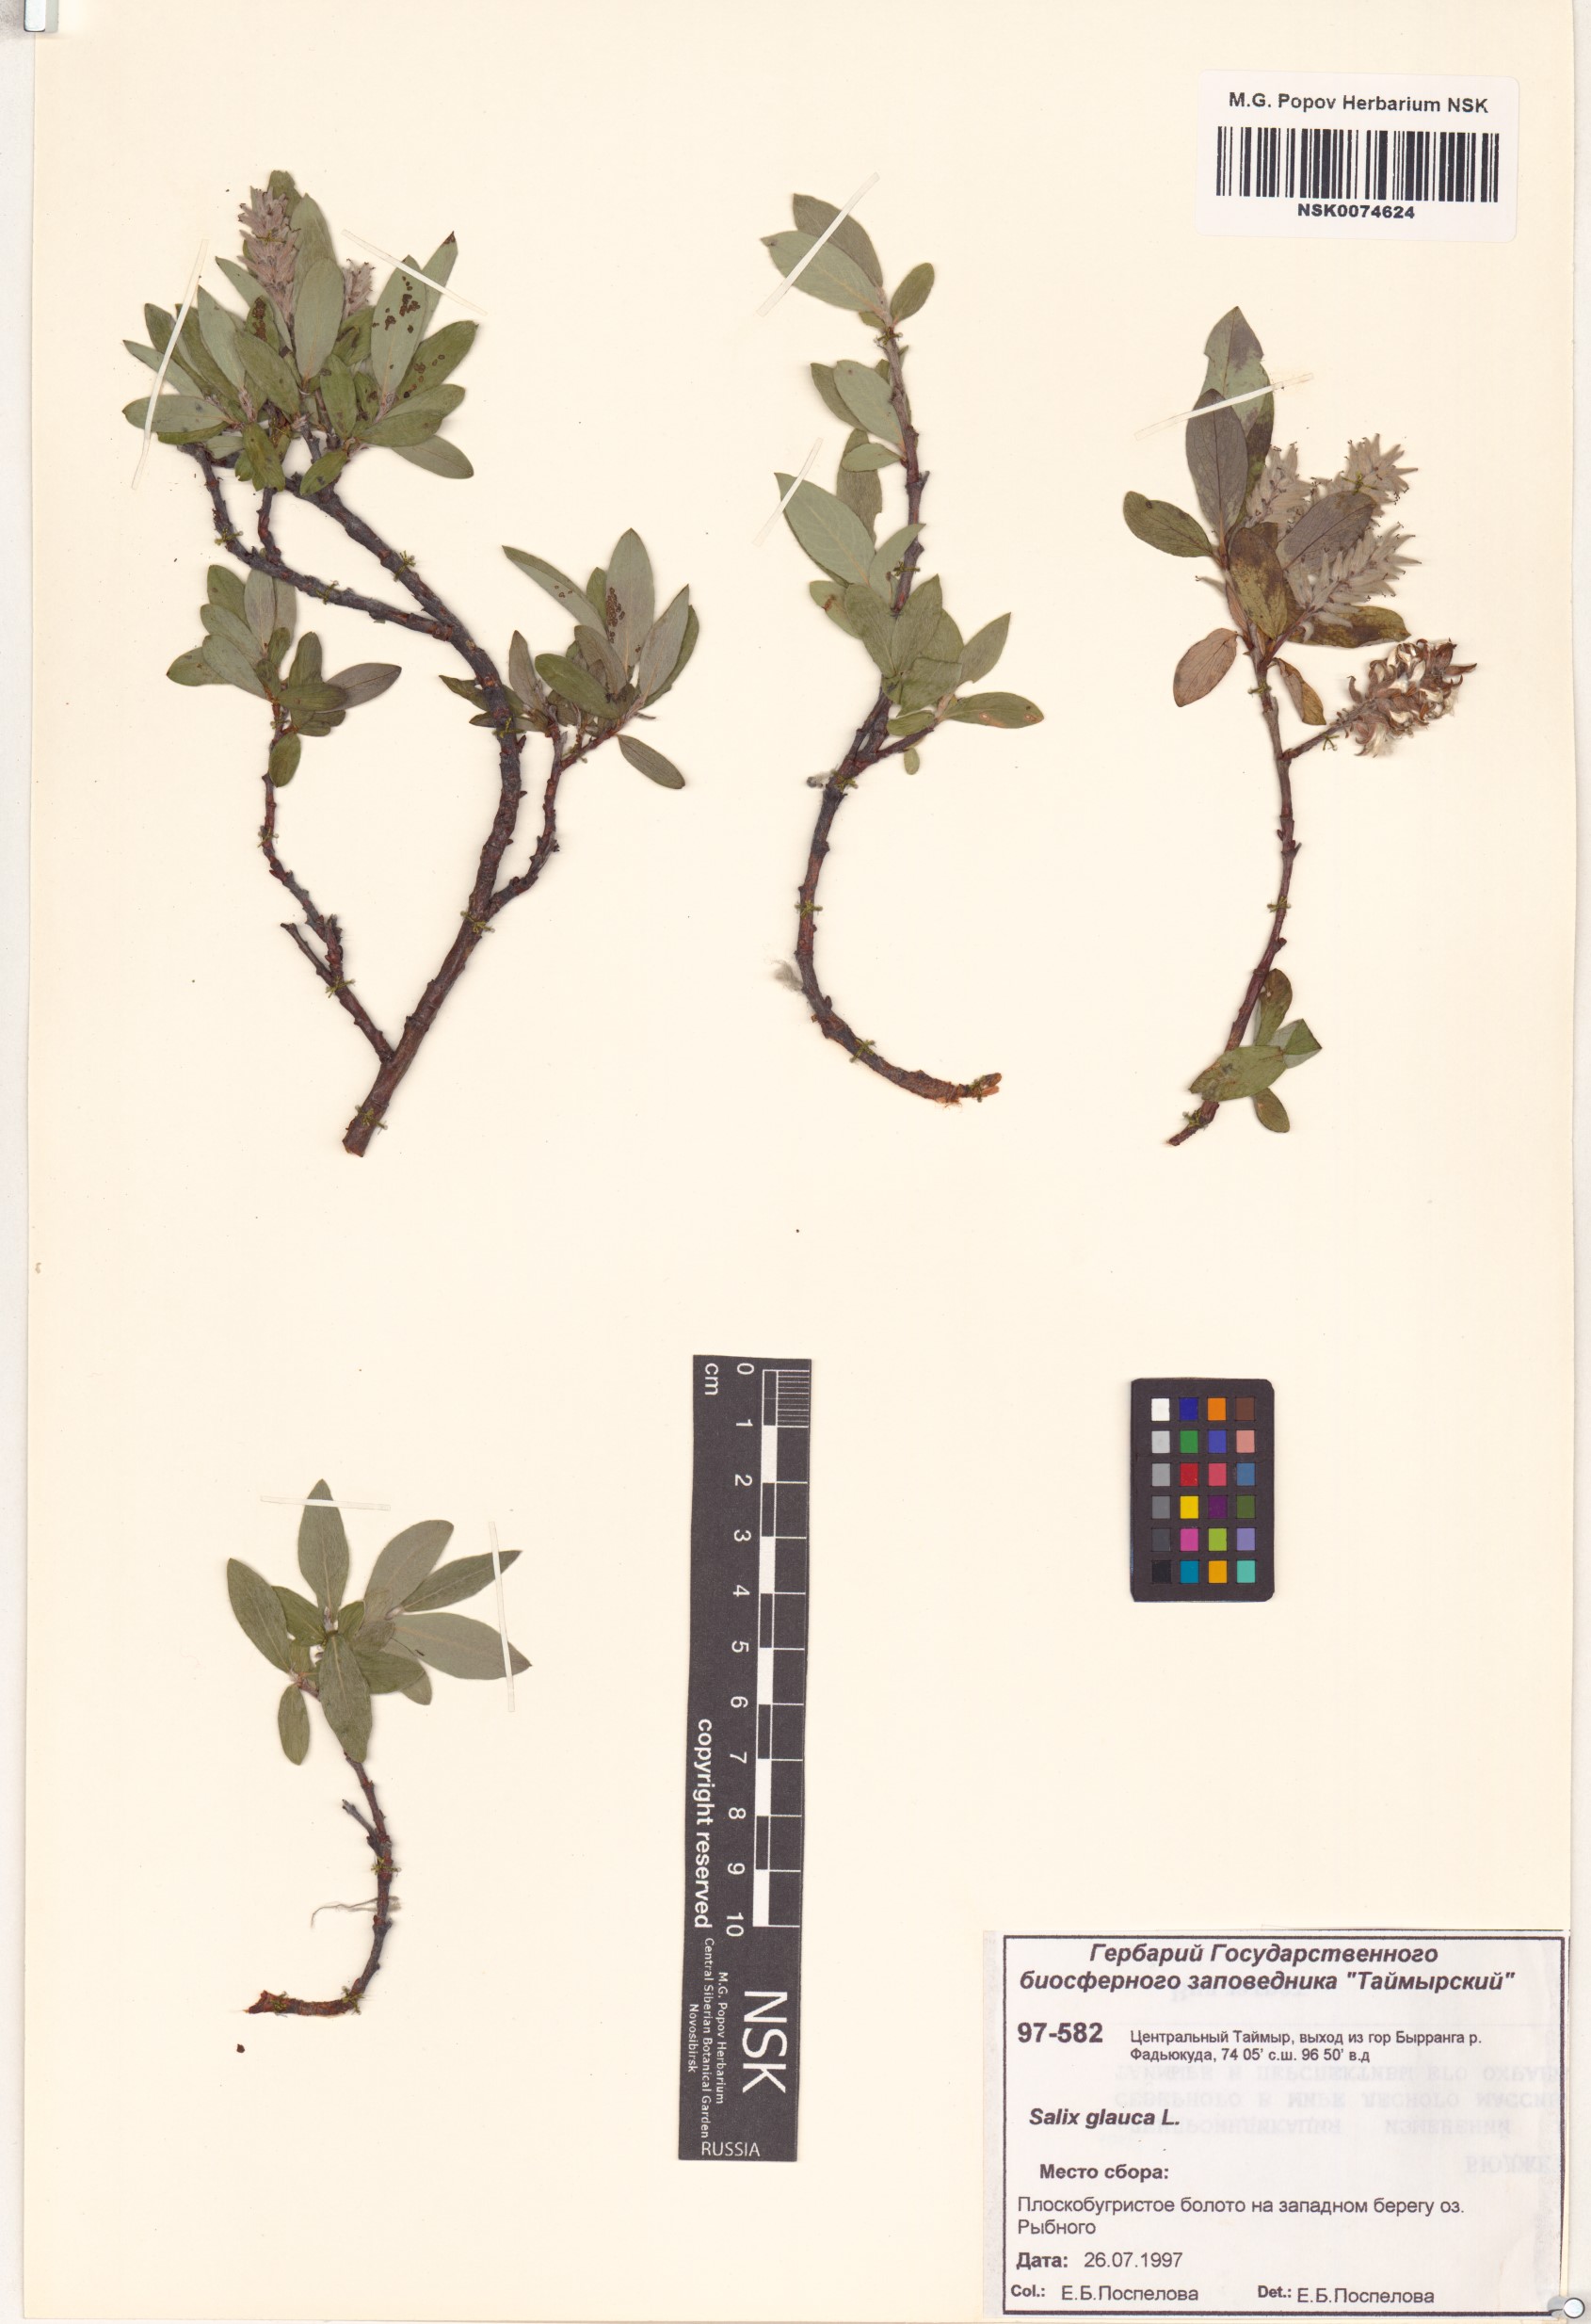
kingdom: Plantae
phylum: Tracheophyta
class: Magnoliopsida
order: Malpighiales
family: Salicaceae
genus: Salix
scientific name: Salix glauca
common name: Glaucous willow
